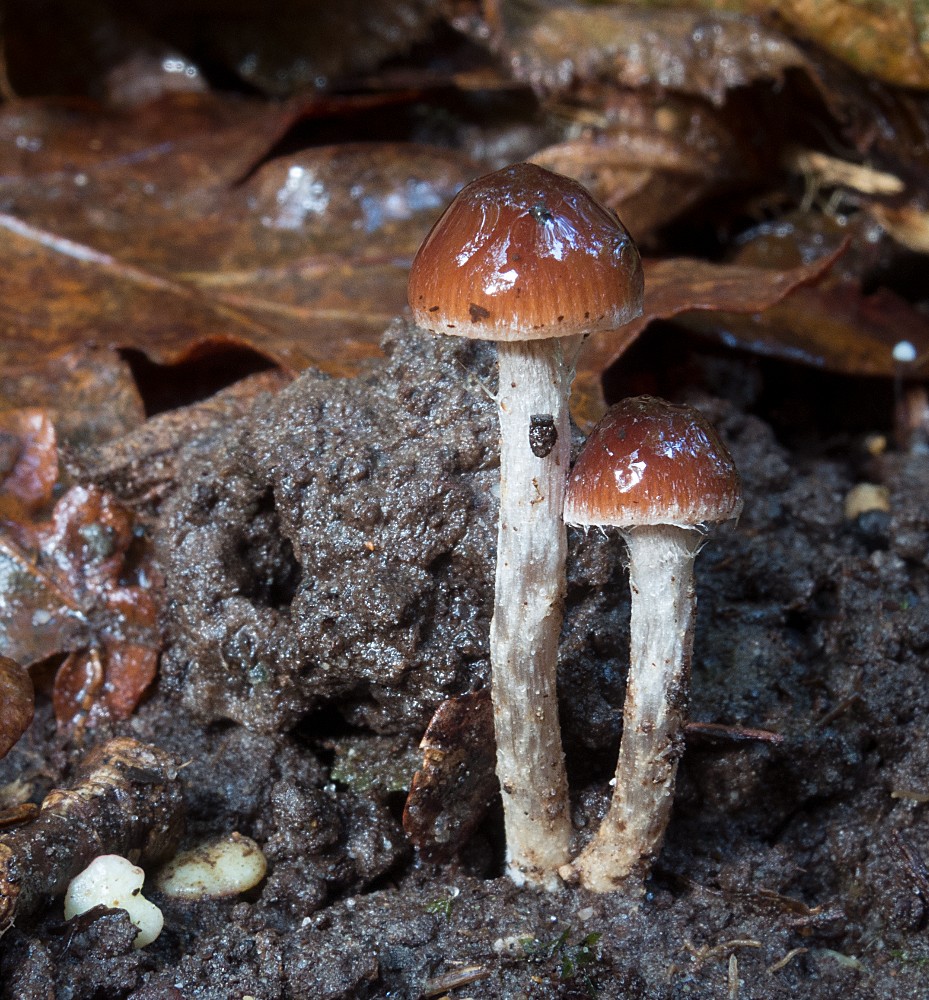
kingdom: Fungi
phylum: Basidiomycota
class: Agaricomycetes
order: Agaricales
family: Hymenogastraceae
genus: Naucoria
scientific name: Naucoria bohemica
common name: birke-knaphat
